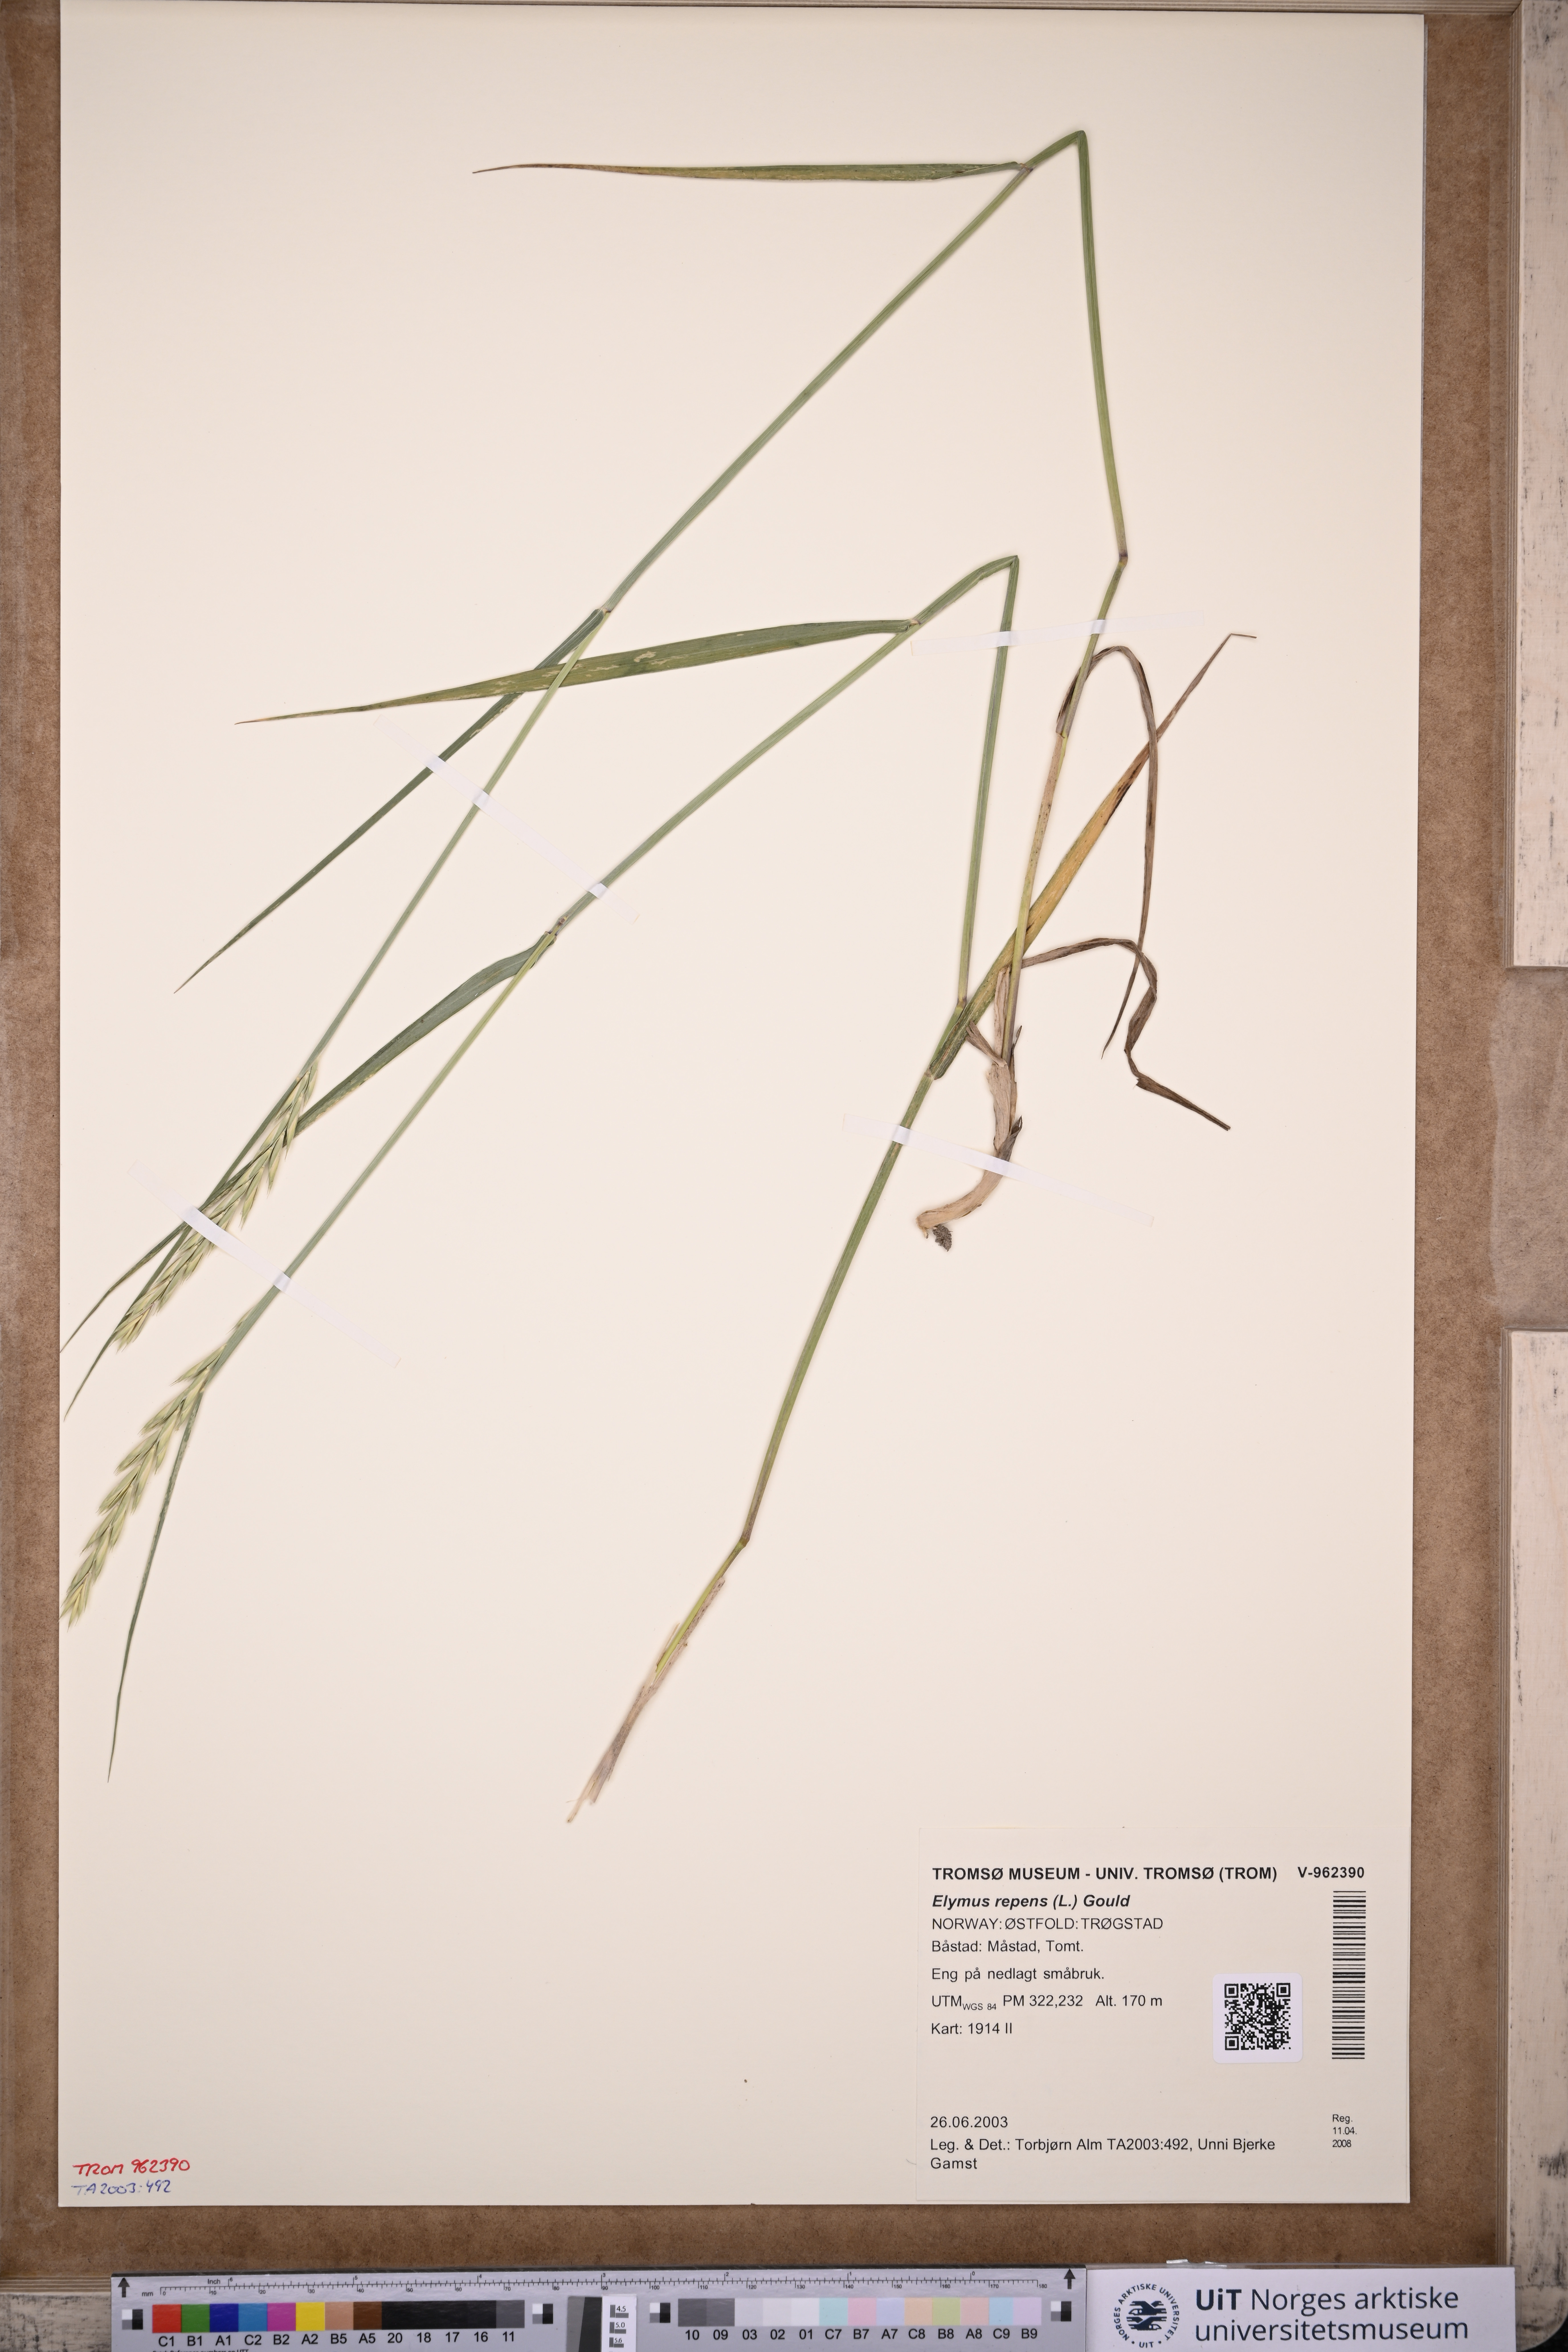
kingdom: Plantae
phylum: Tracheophyta
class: Liliopsida
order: Poales
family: Poaceae
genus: Elymus
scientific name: Elymus repens
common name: Quackgrass
